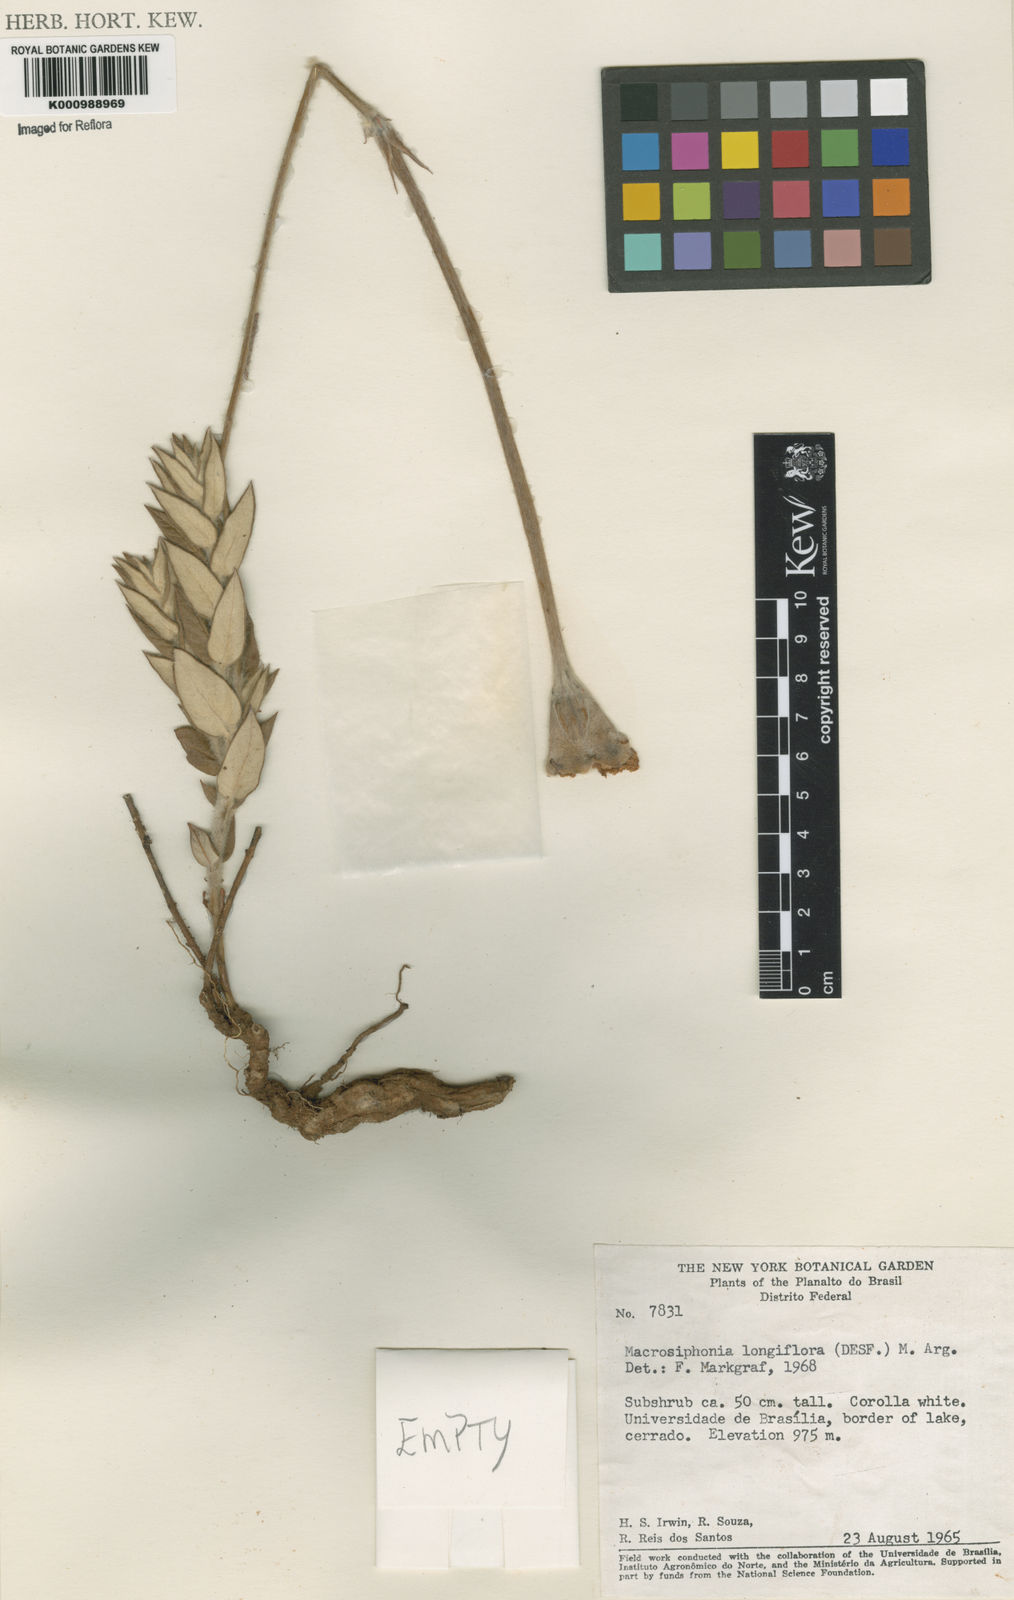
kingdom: Plantae
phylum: Tracheophyta
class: Magnoliopsida
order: Gentianales
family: Apocynaceae
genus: Mandevilla
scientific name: Mandevilla longiflora
